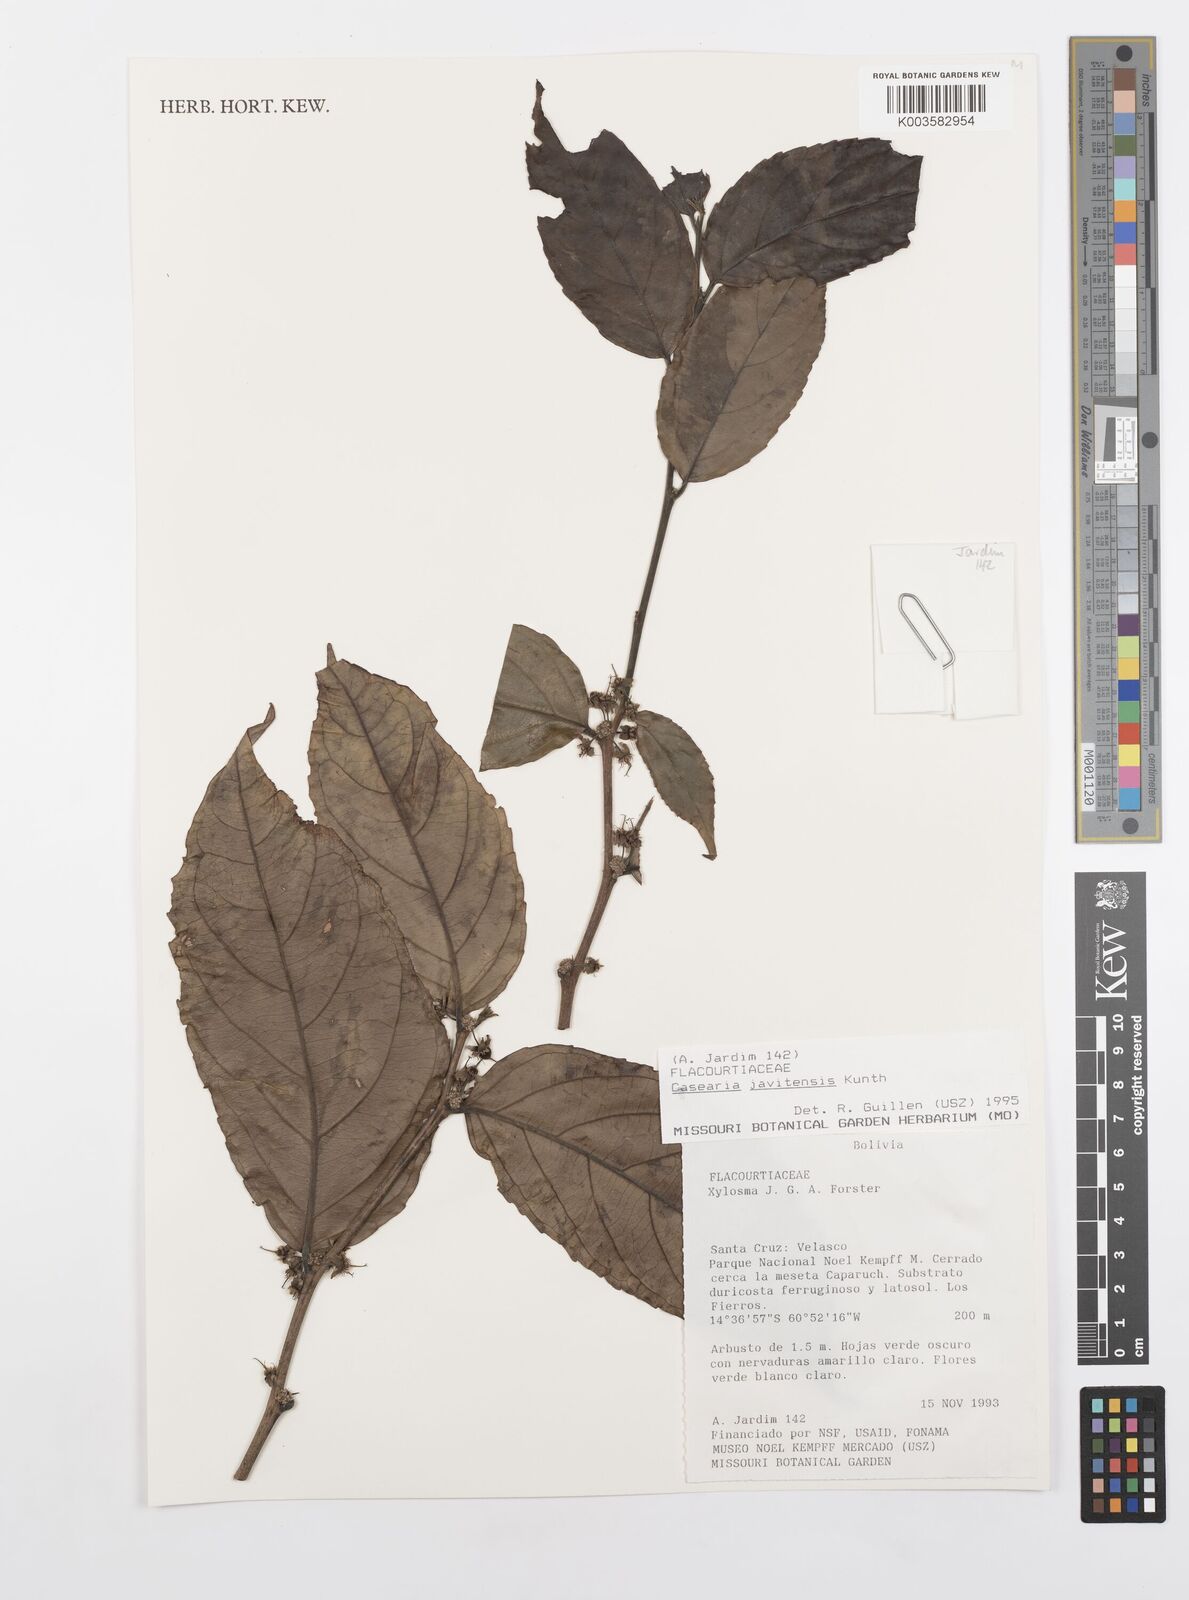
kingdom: Plantae
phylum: Tracheophyta
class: Magnoliopsida
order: Malpighiales
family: Salicaceae
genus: Piparea
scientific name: Piparea multiflora
